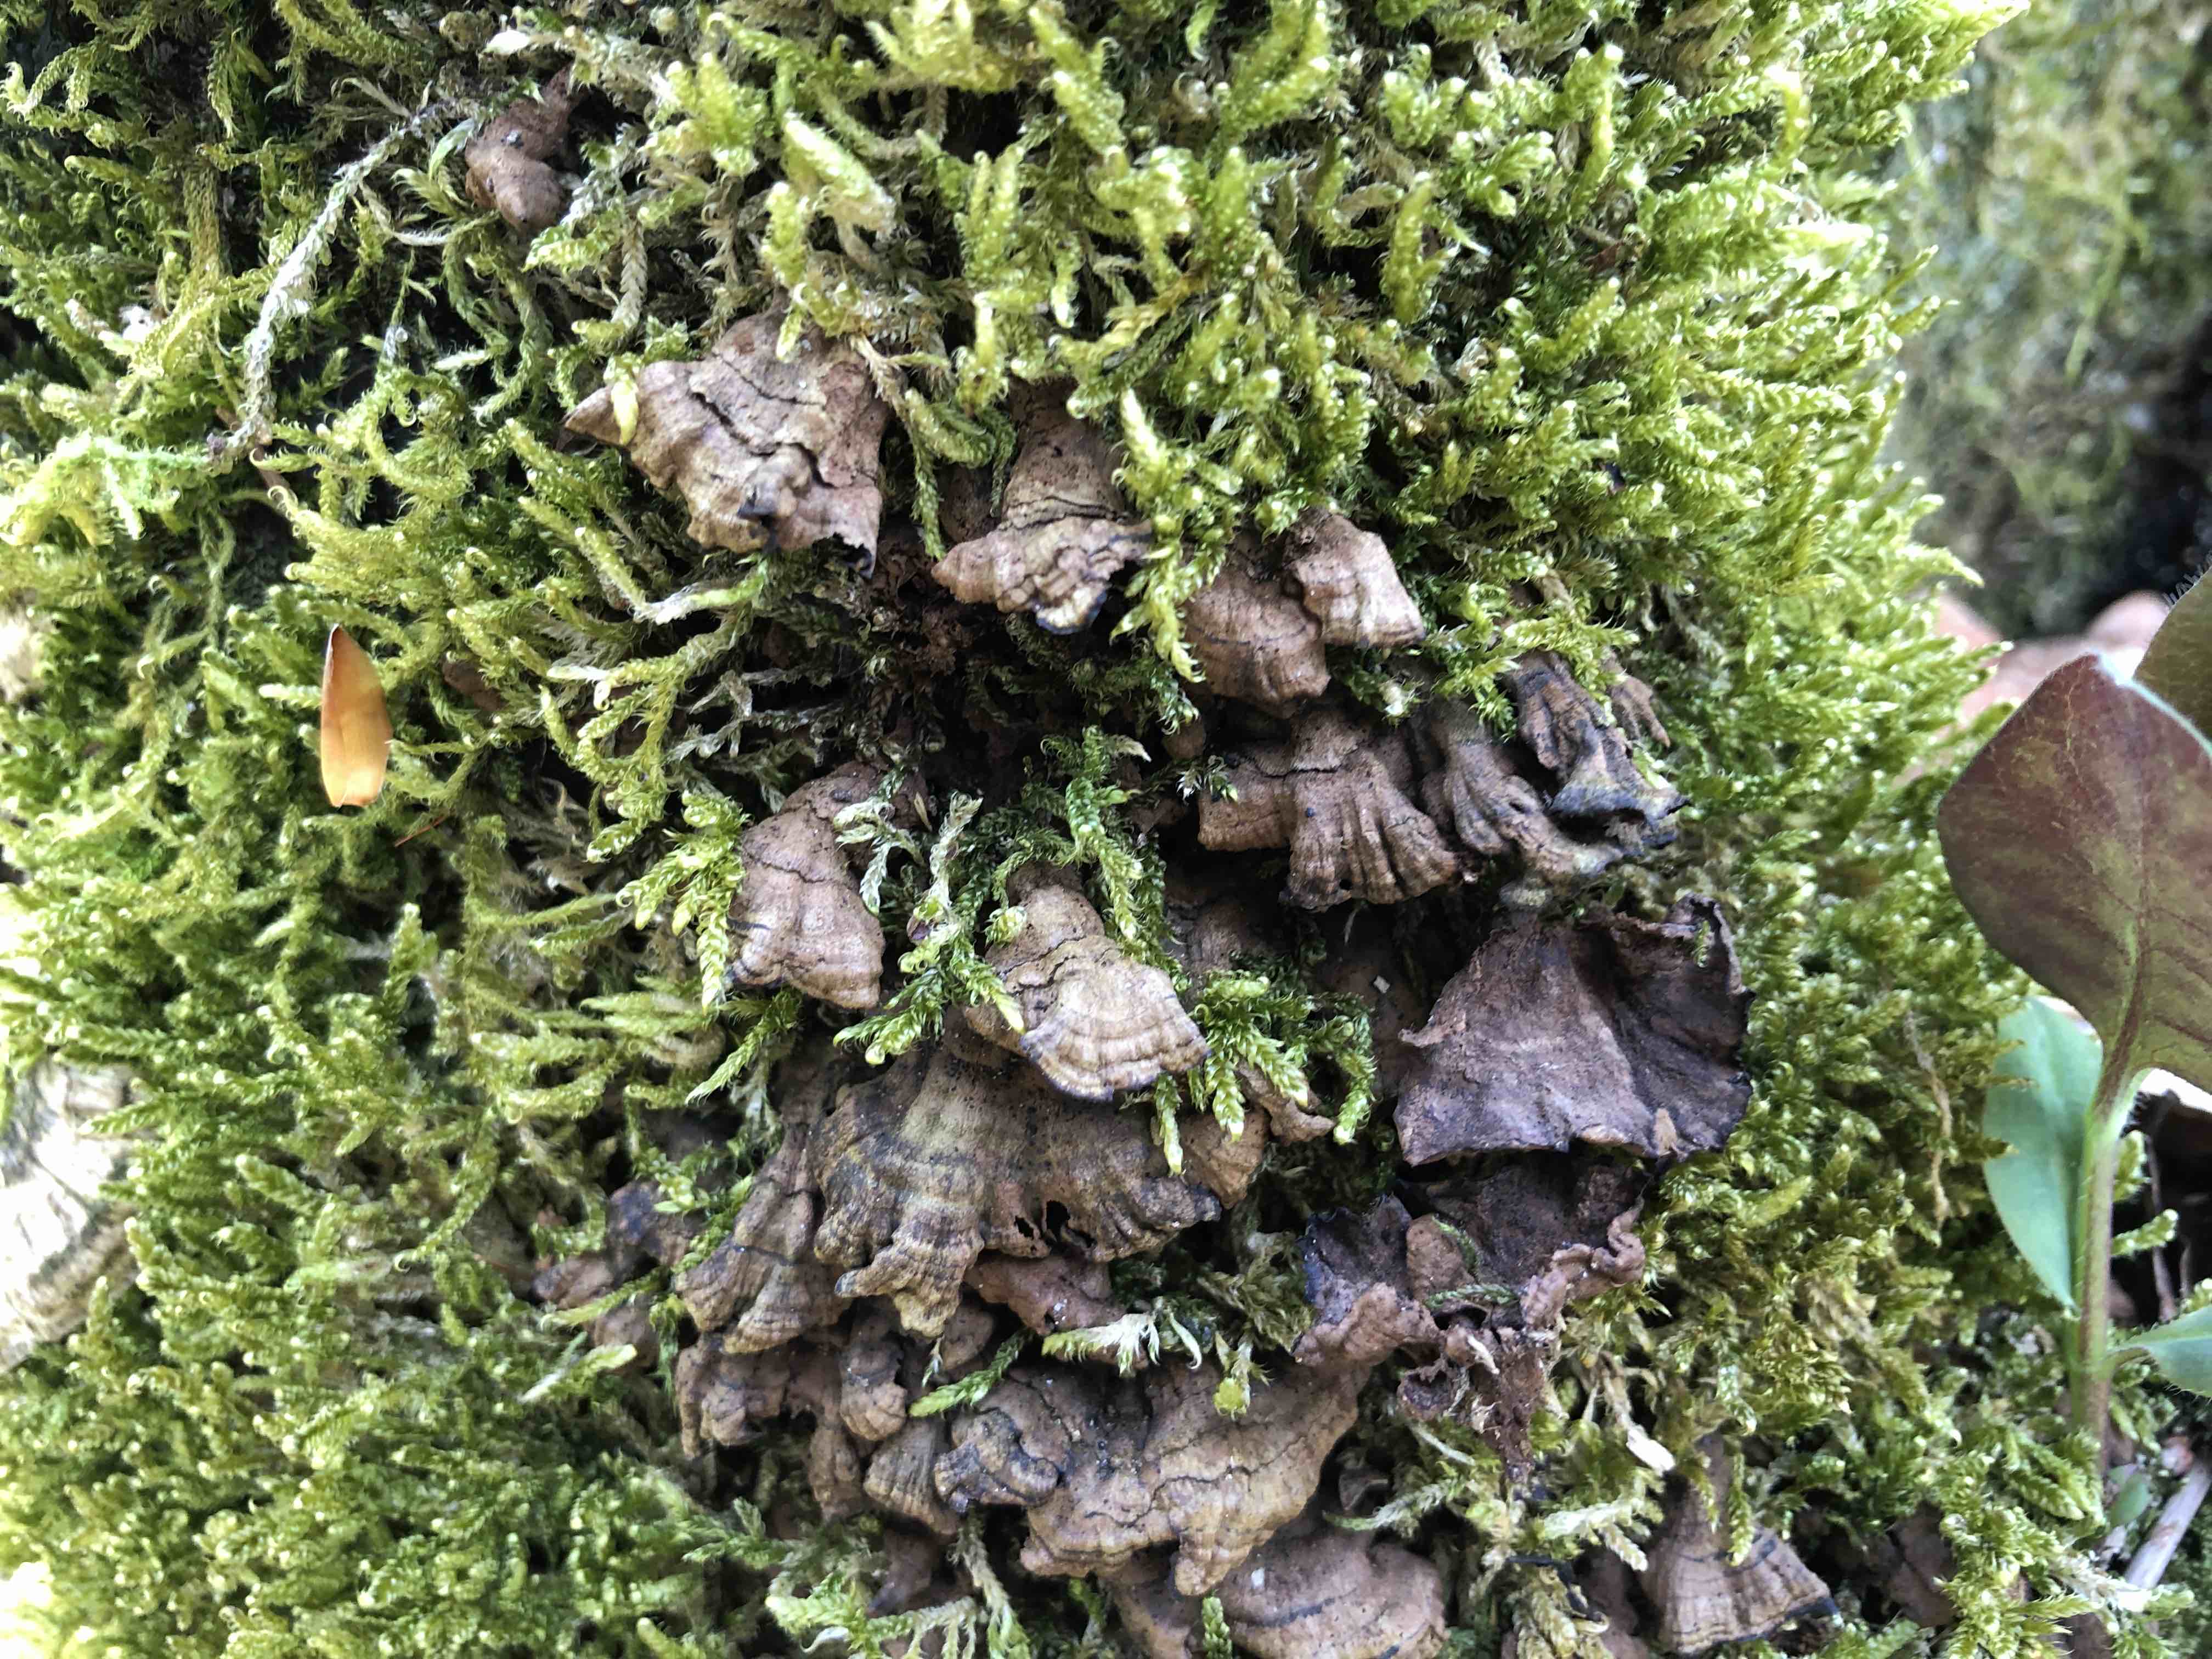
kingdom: Fungi
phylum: Basidiomycota
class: Agaricomycetes
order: Hymenochaetales
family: Hymenochaetaceae
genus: Hymenochaete
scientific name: Hymenochaete rubiginosa
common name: stiv ruslædersvamp
